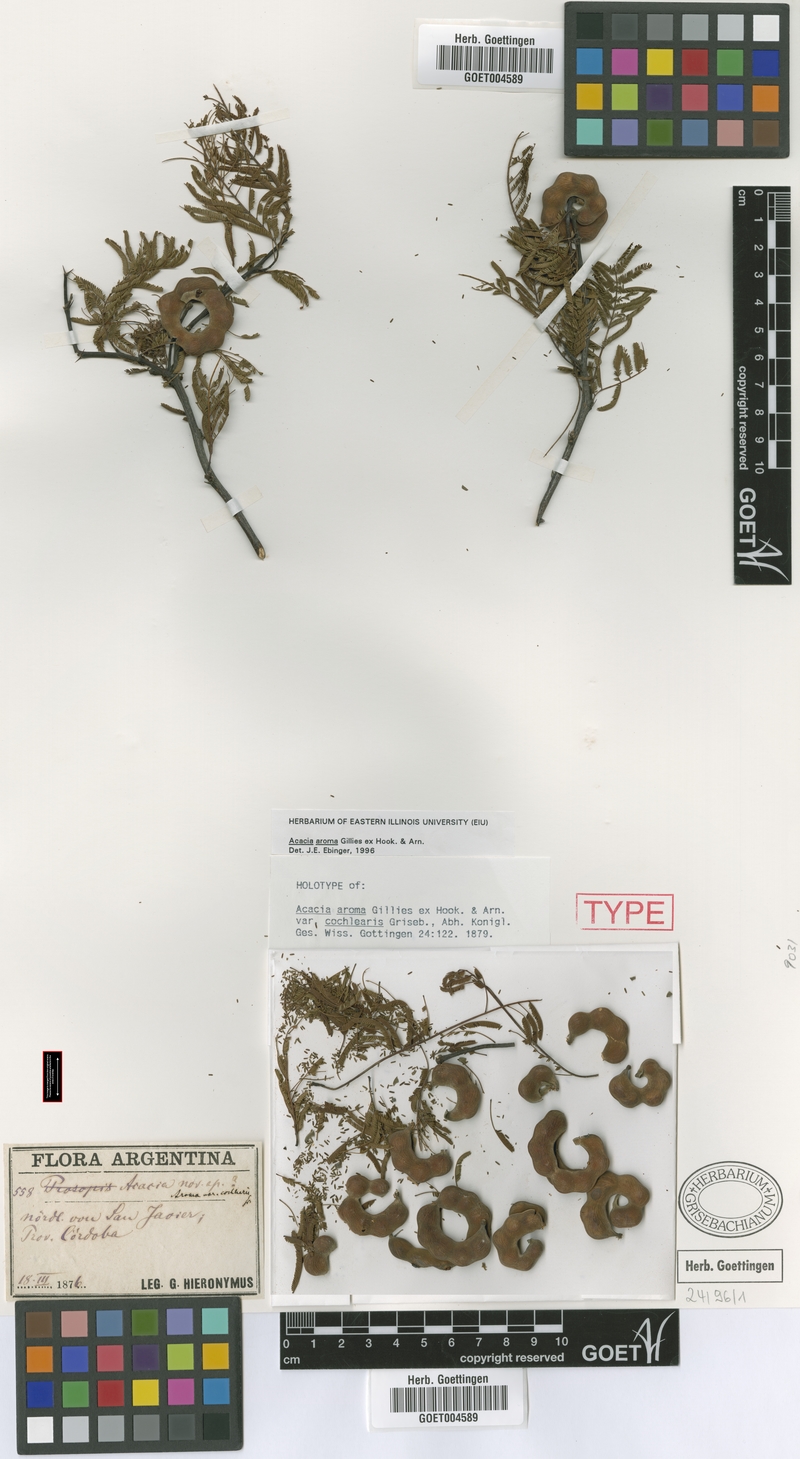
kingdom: Plantae
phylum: Tracheophyta
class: Magnoliopsida
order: Fabales
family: Fabaceae
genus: Vachellia
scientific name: Vachellia aroma
